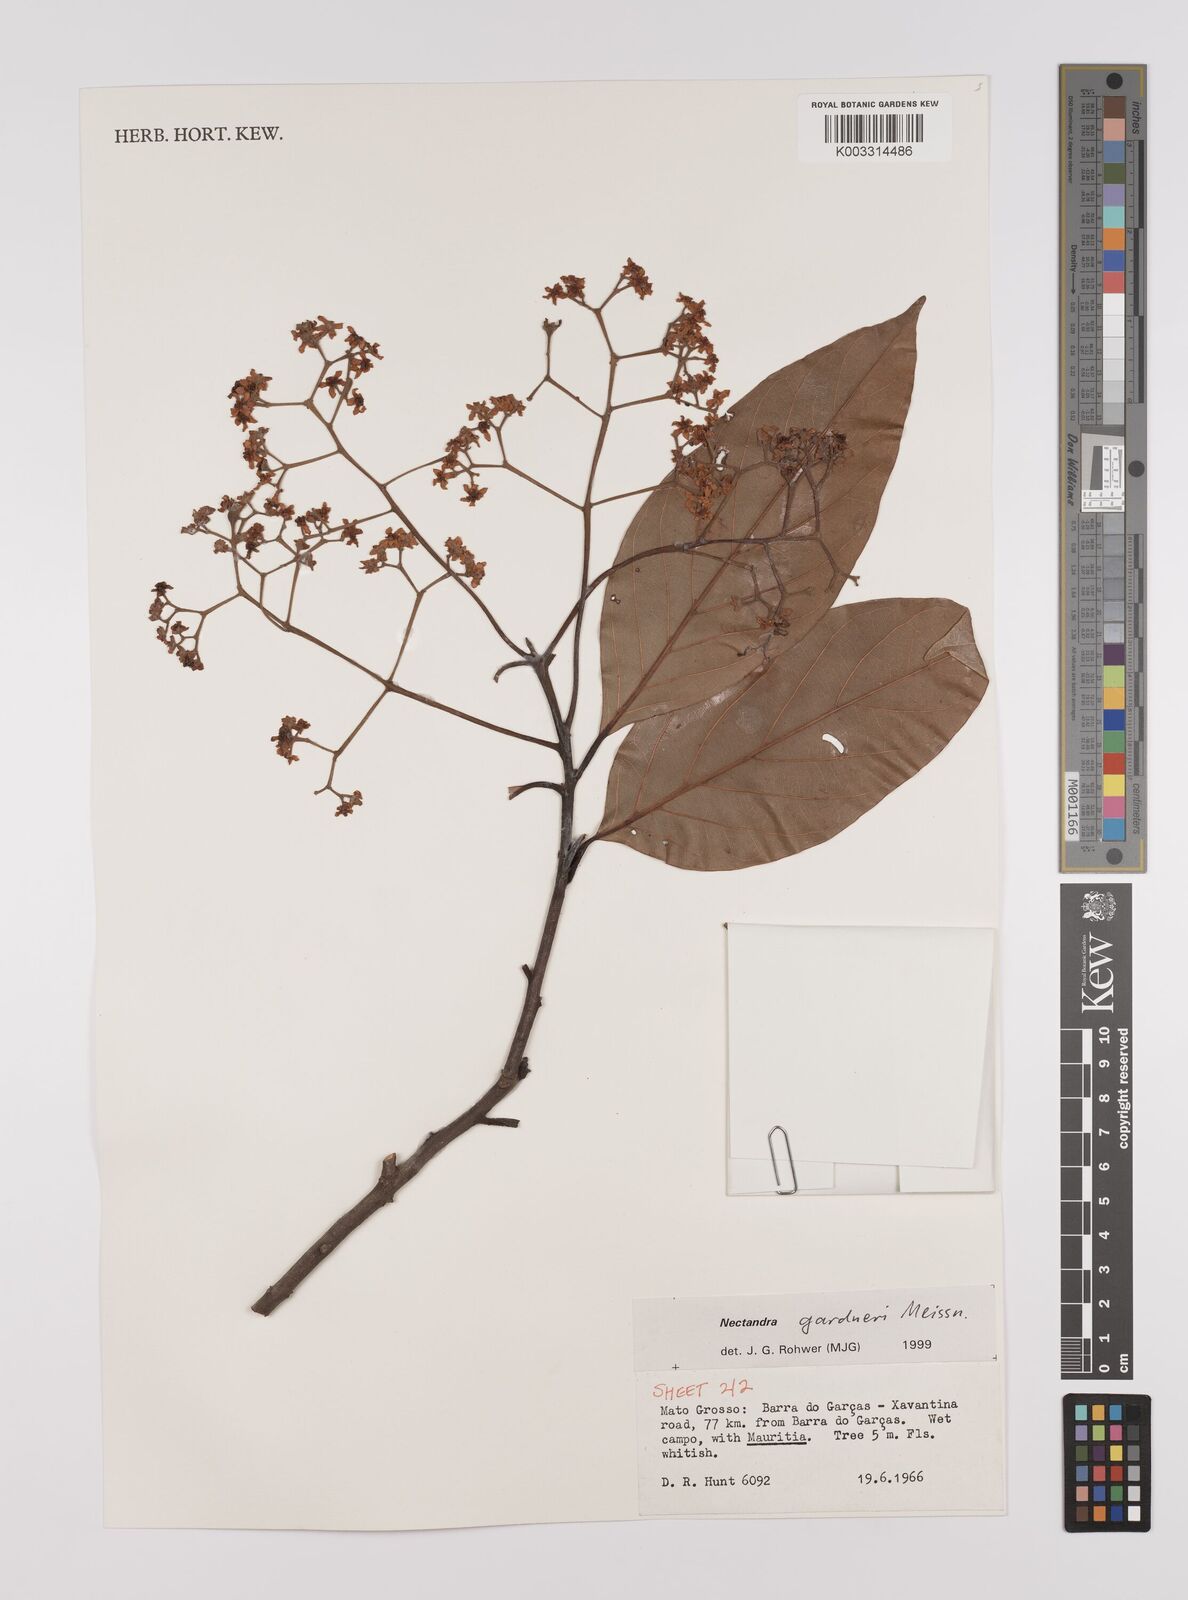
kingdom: Plantae
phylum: Tracheophyta
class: Magnoliopsida
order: Laurales
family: Lauraceae
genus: Nectandra
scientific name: Nectandra gardneri
